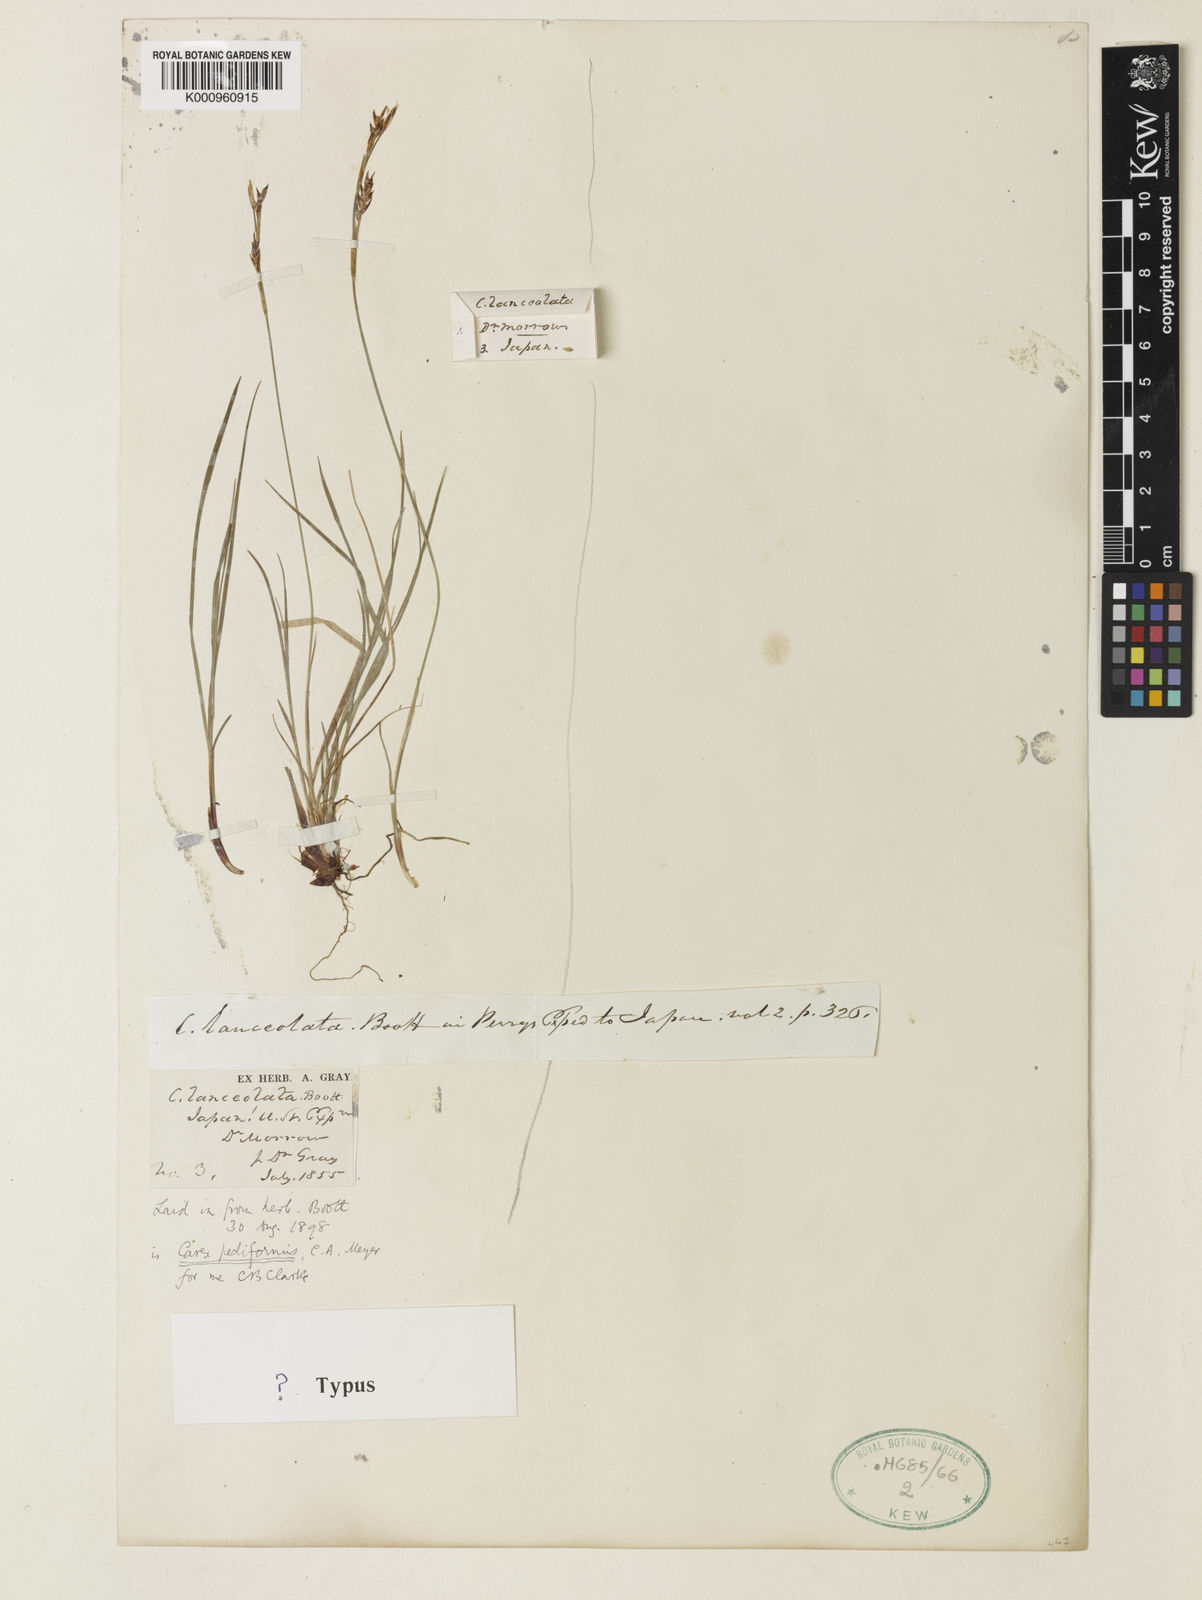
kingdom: Plantae
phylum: Tracheophyta
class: Liliopsida
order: Poales
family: Cyperaceae
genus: Carex
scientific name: Carex lanceolata
